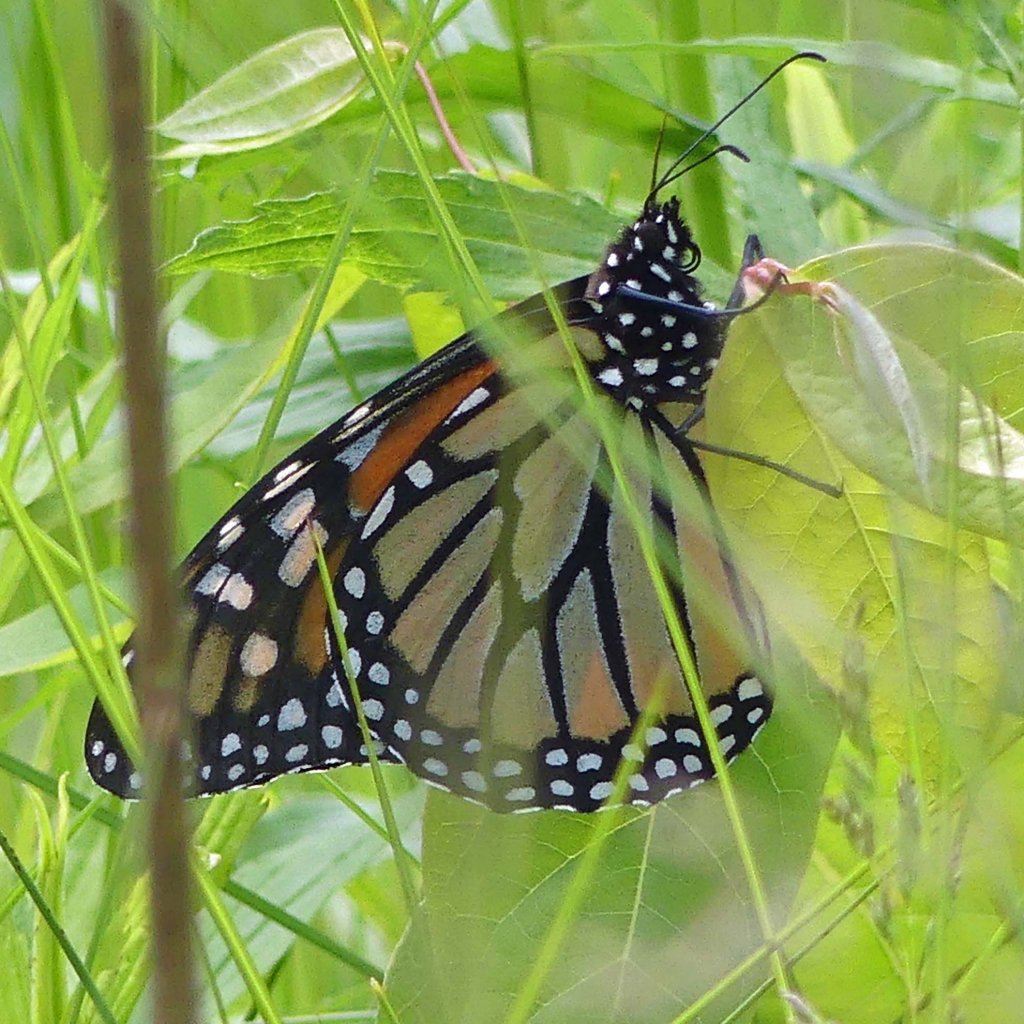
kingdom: Animalia
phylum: Arthropoda
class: Insecta
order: Lepidoptera
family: Nymphalidae
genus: Danaus
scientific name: Danaus plexippus
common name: Monarch
